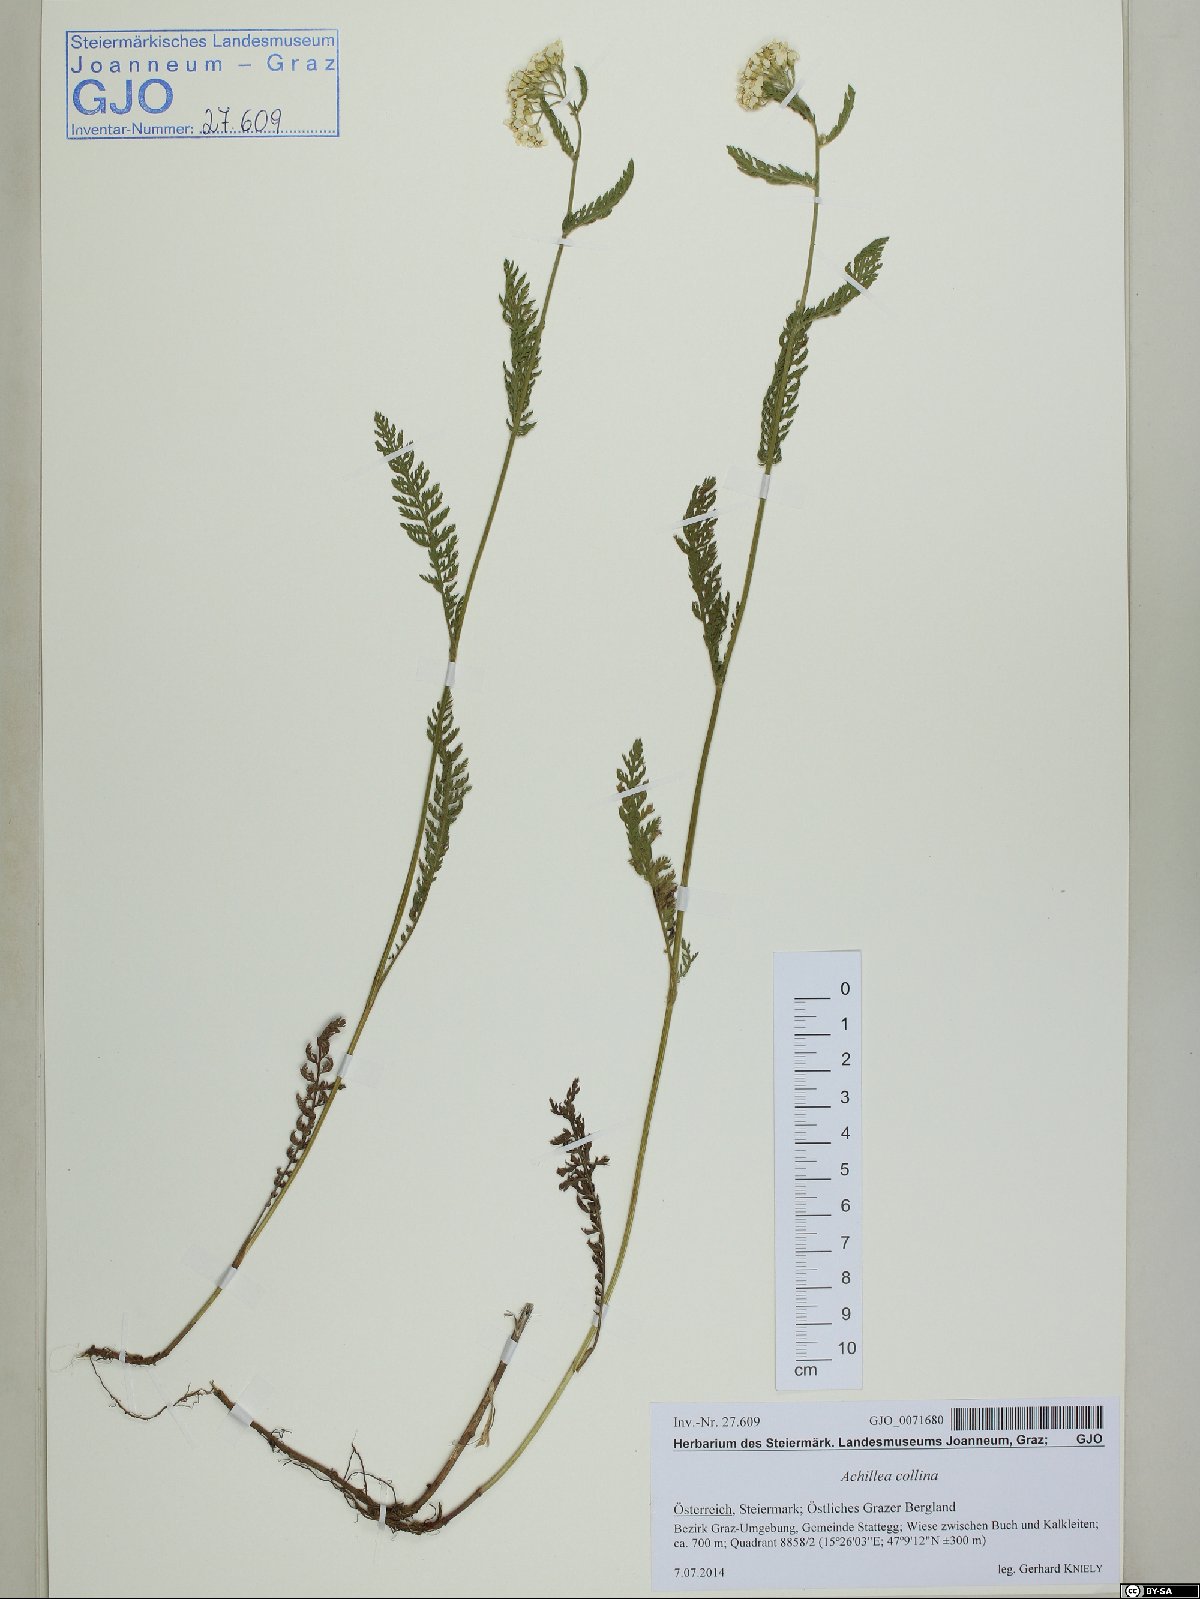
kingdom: Plantae
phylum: Tracheophyta
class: Magnoliopsida
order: Asterales
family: Asteraceae
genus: Achillea
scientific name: Achillea collina
